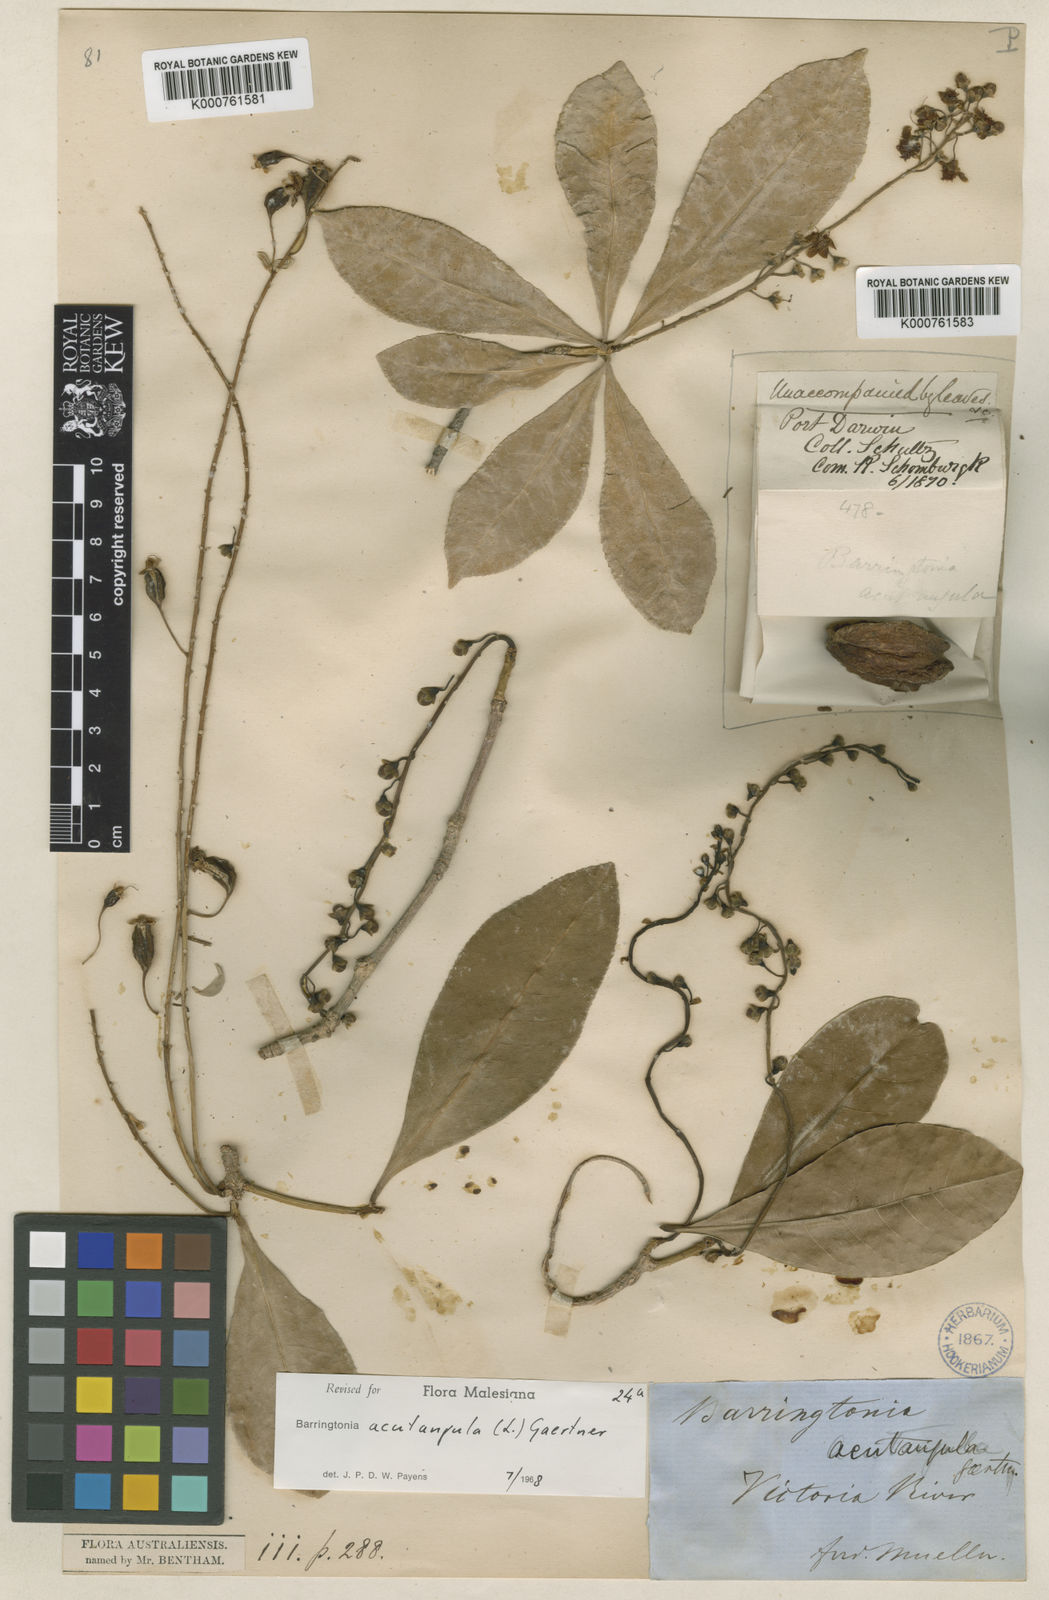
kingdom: Plantae
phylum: Tracheophyta
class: Magnoliopsida
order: Ericales
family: Lecythidaceae
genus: Barringtonia
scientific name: Barringtonia acutangula
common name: Freshwater mangrove
